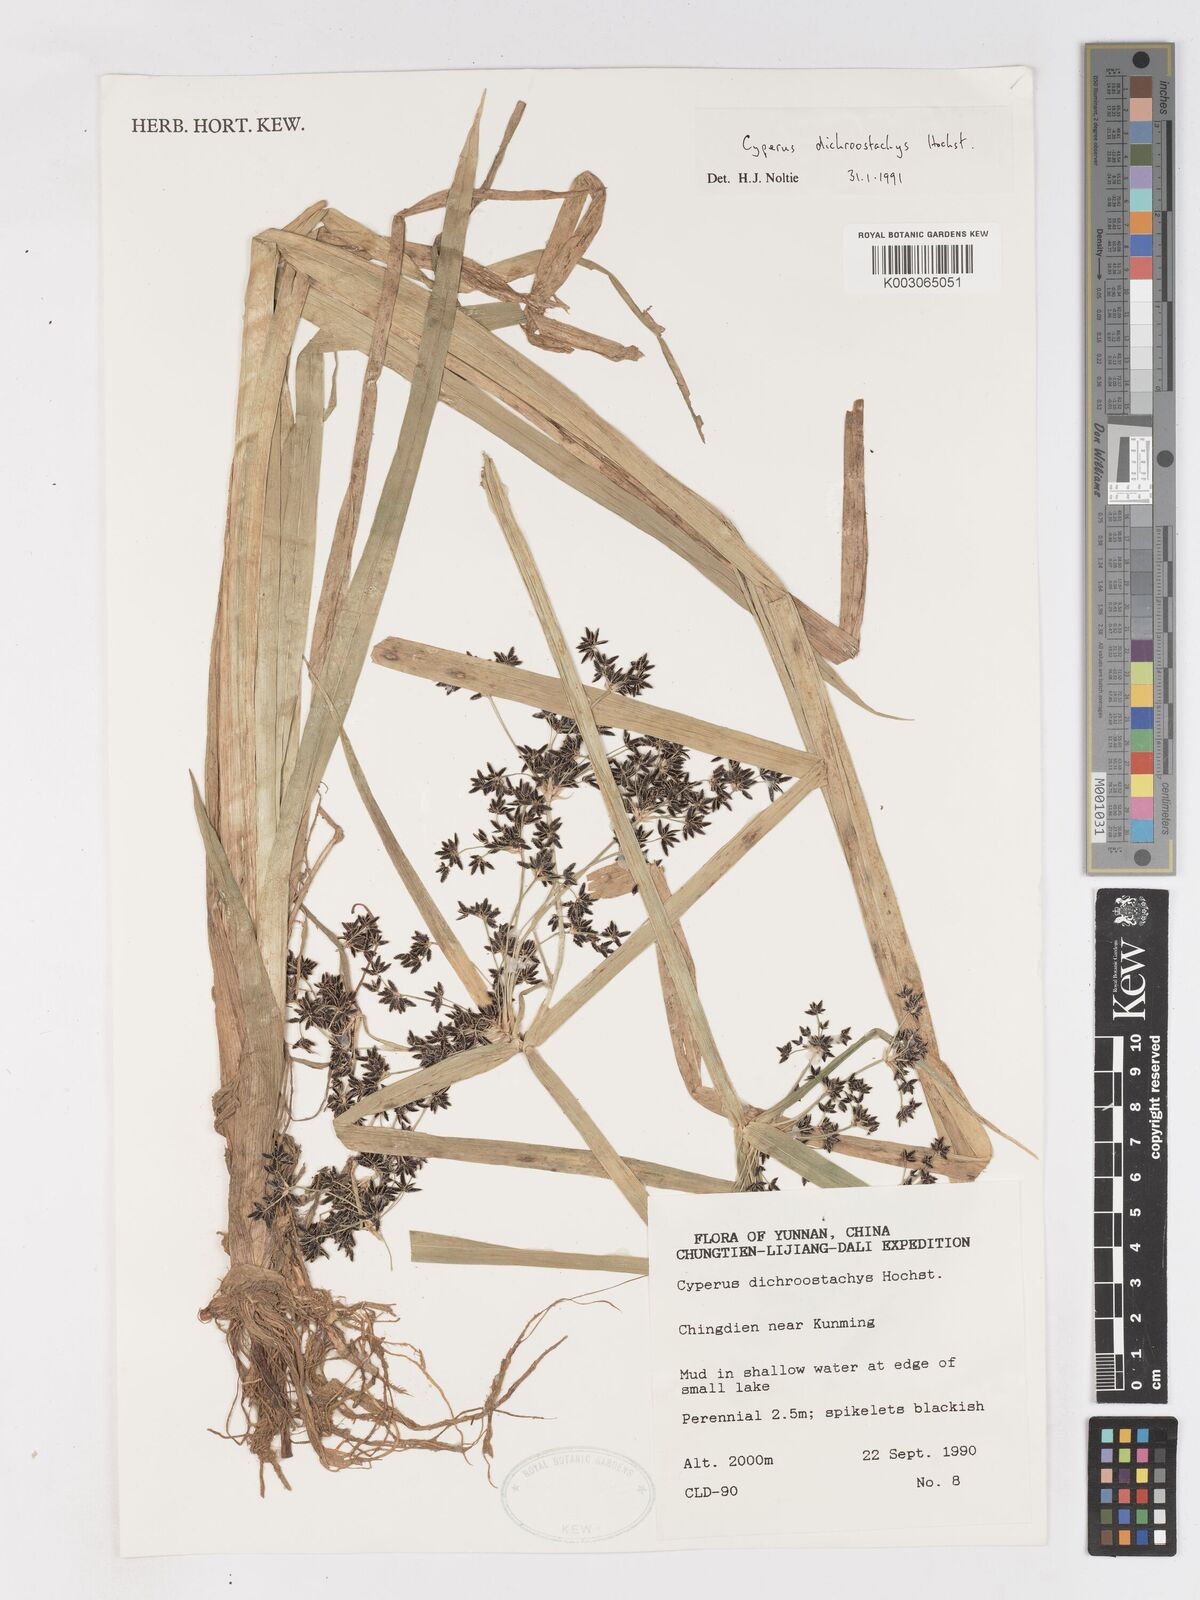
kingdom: Plantae
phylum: Tracheophyta
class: Liliopsida
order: Poales
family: Cyperaceae
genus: Cyperus
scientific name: Cyperus dichrostachyus
